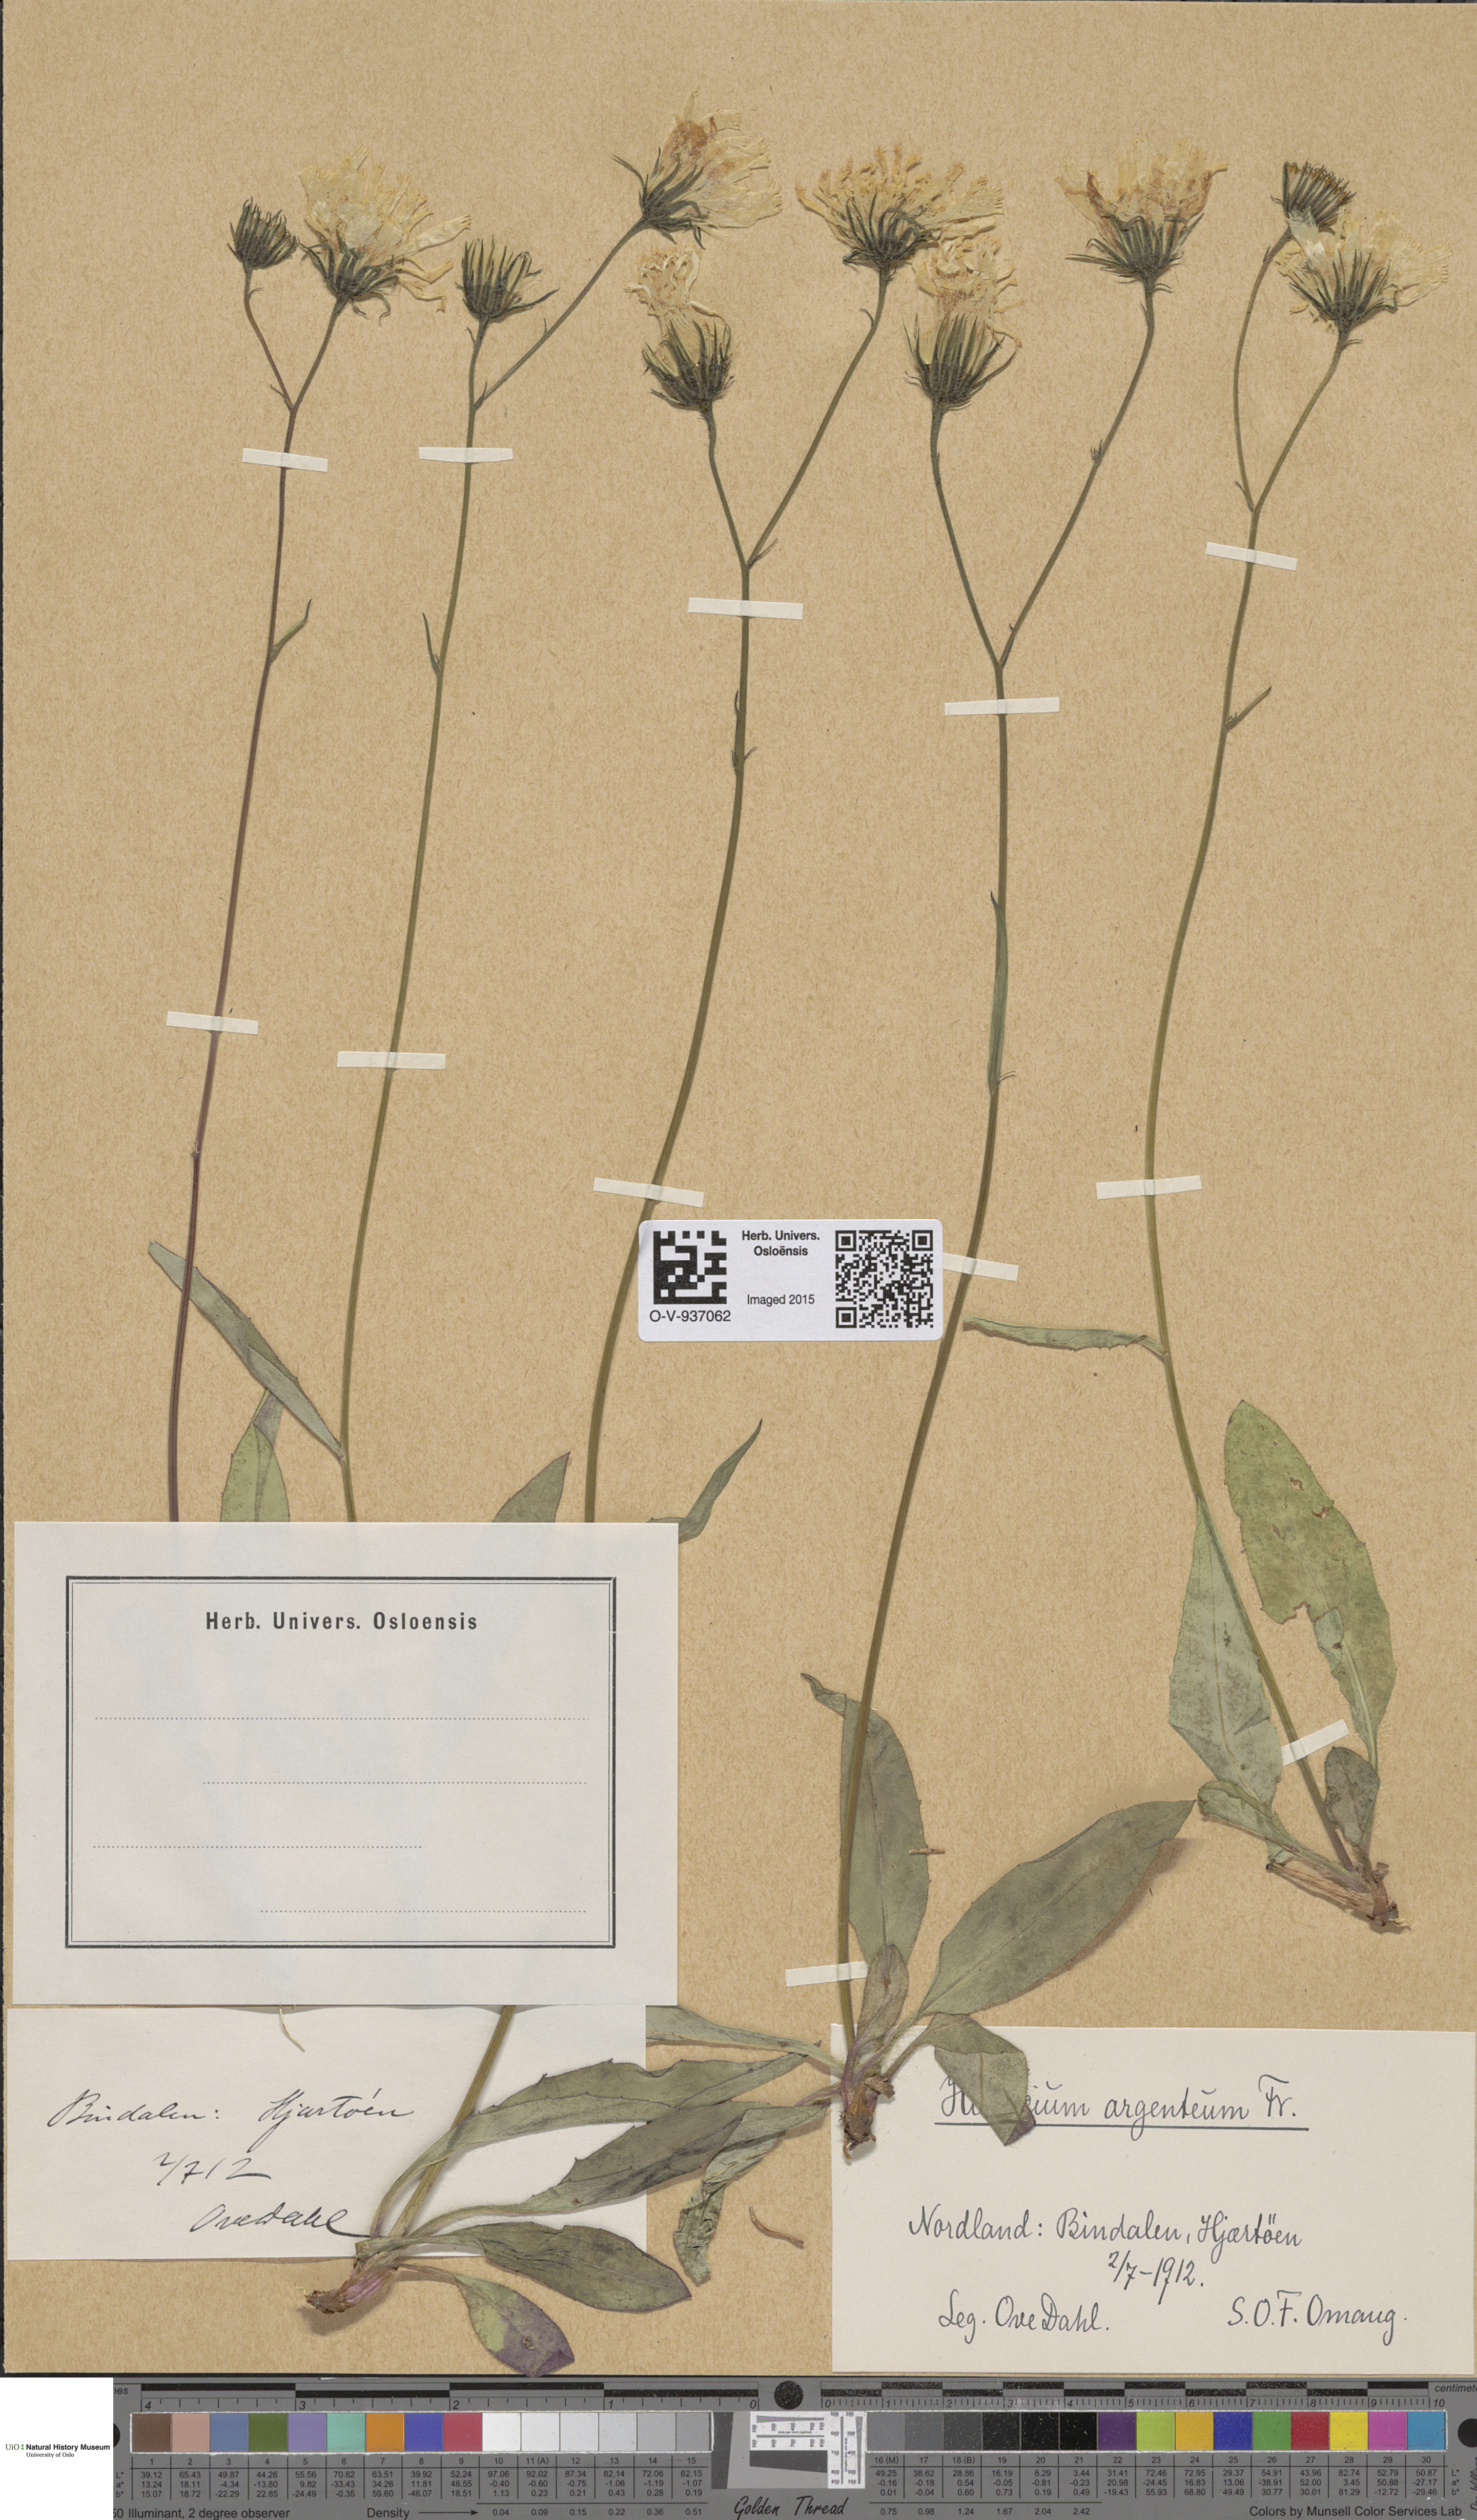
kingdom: Plantae
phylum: Tracheophyta
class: Magnoliopsida
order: Asterales
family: Asteraceae
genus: Hieracium
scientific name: Hieracium argenteum
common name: Silver hawkweed
